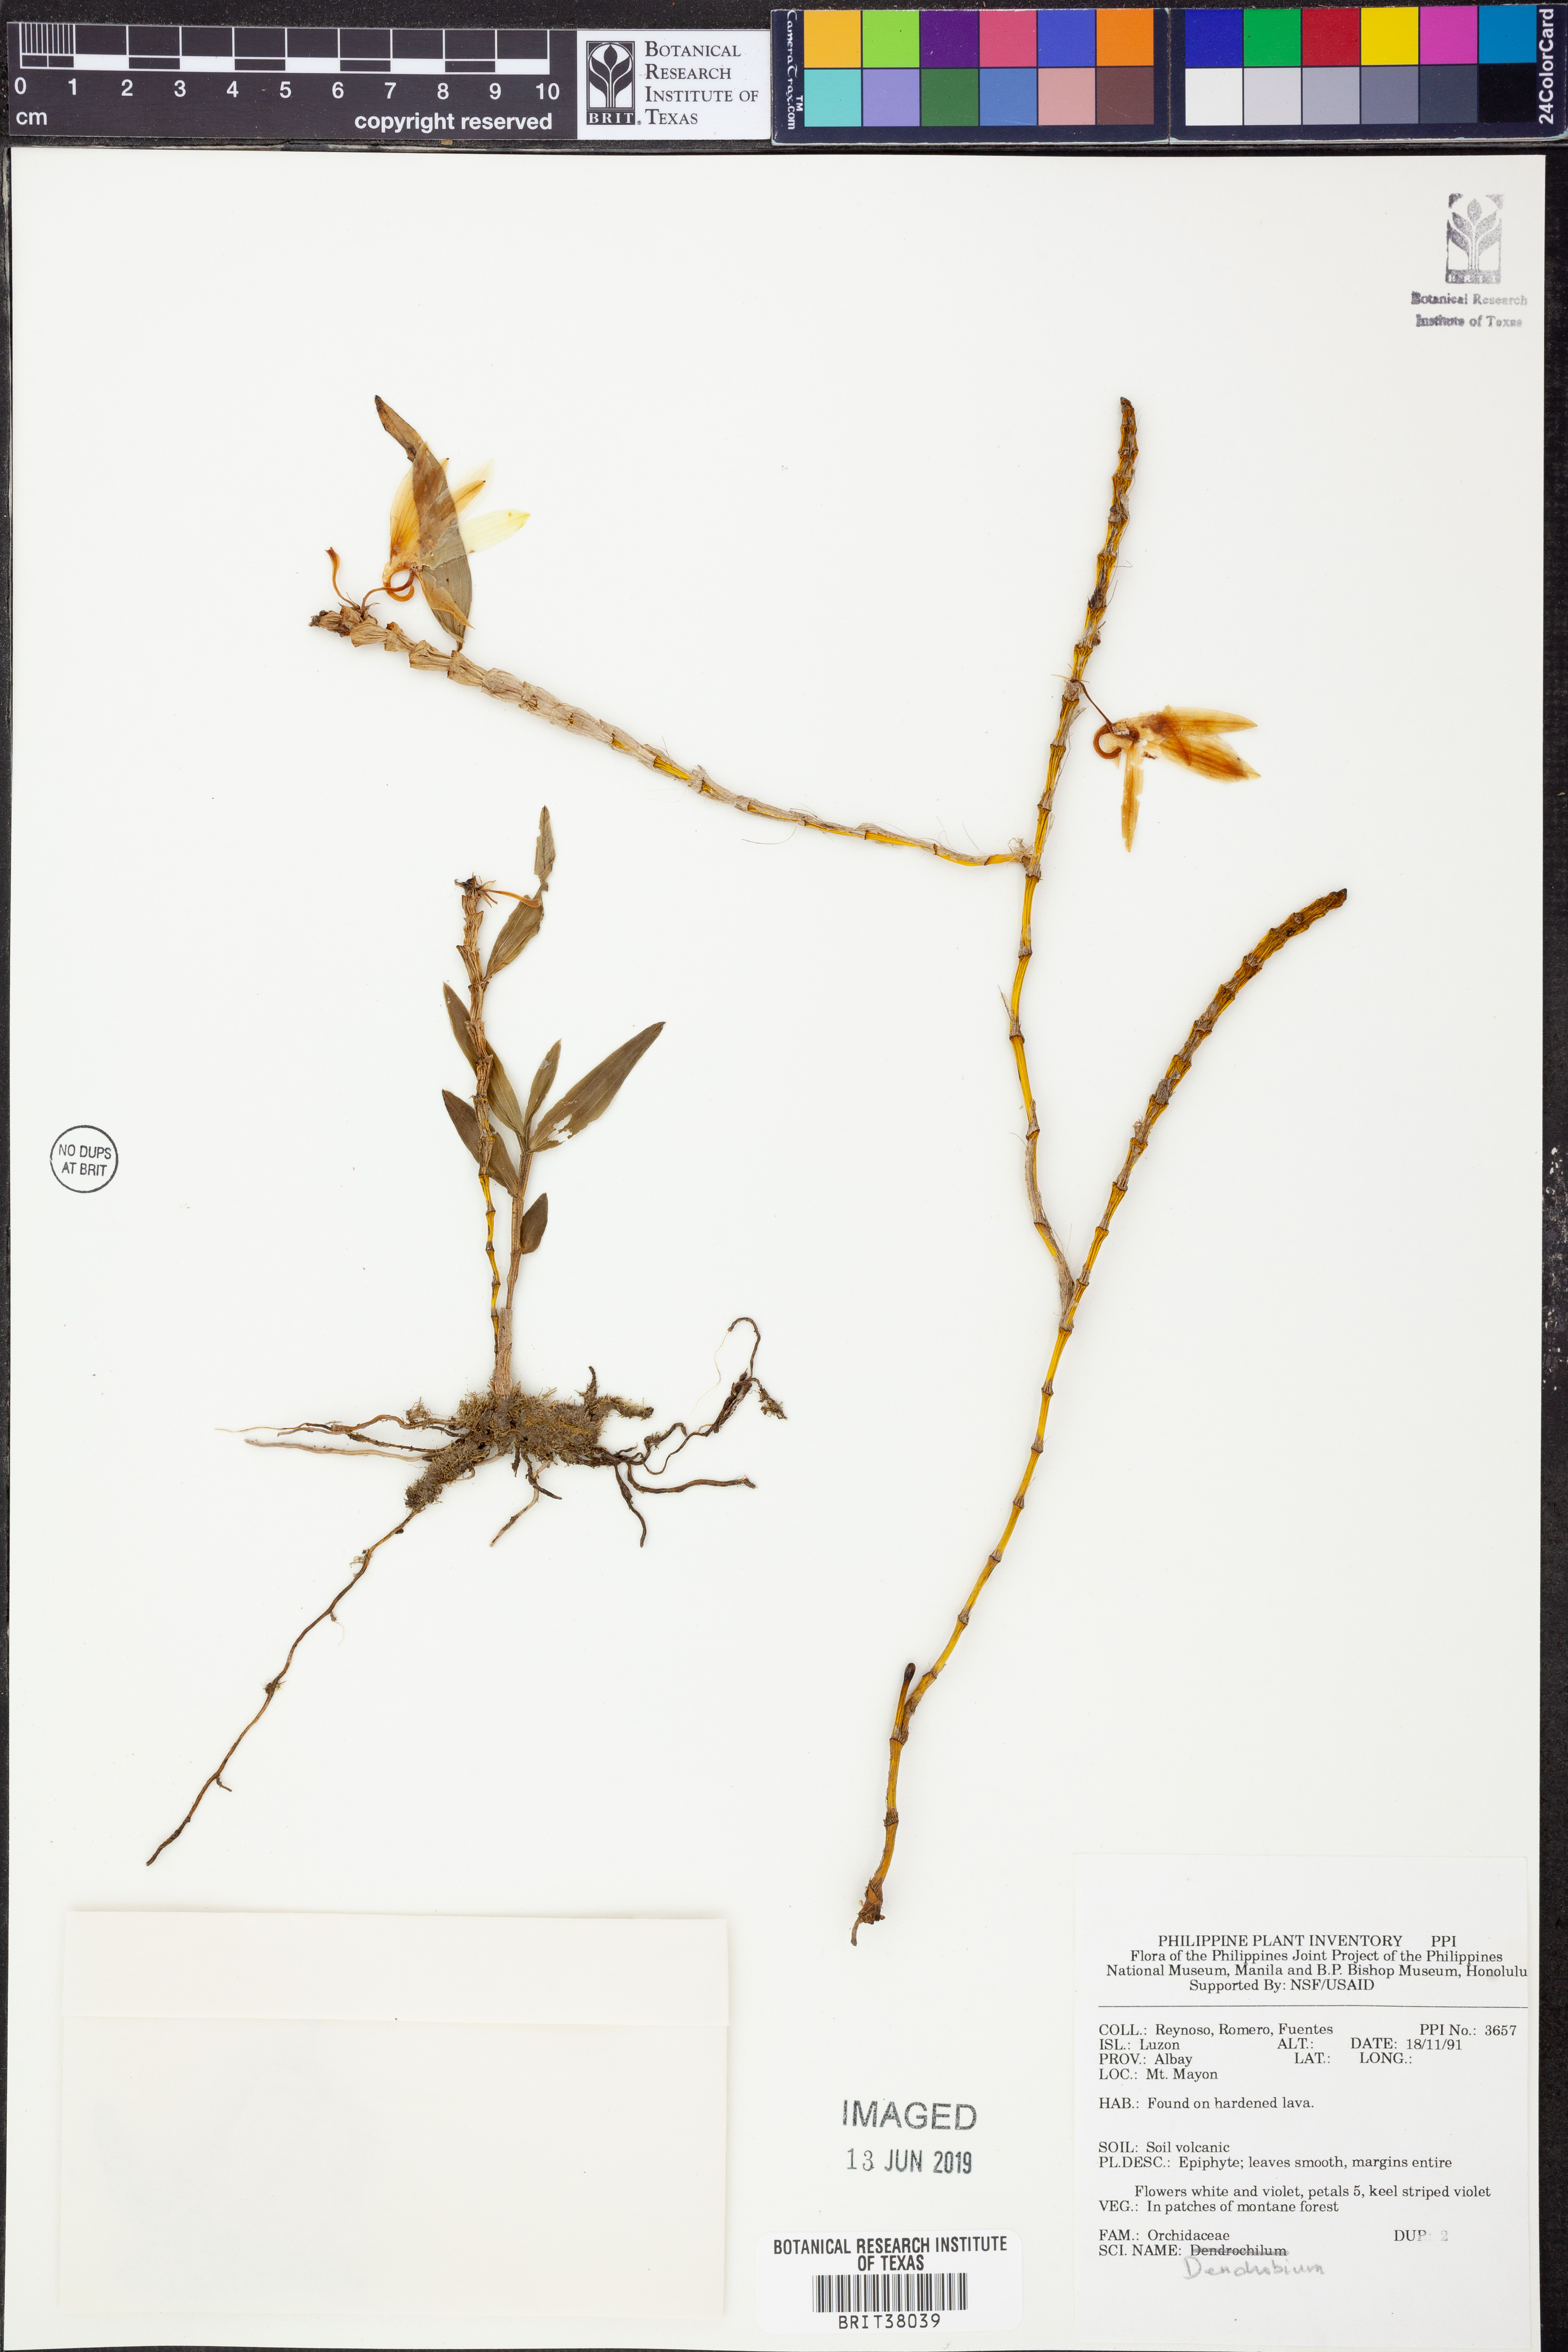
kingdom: Plantae
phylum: Tracheophyta
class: Liliopsida
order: Asparagales
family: Orchidaceae
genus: Dendrobium
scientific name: Dendrobium
